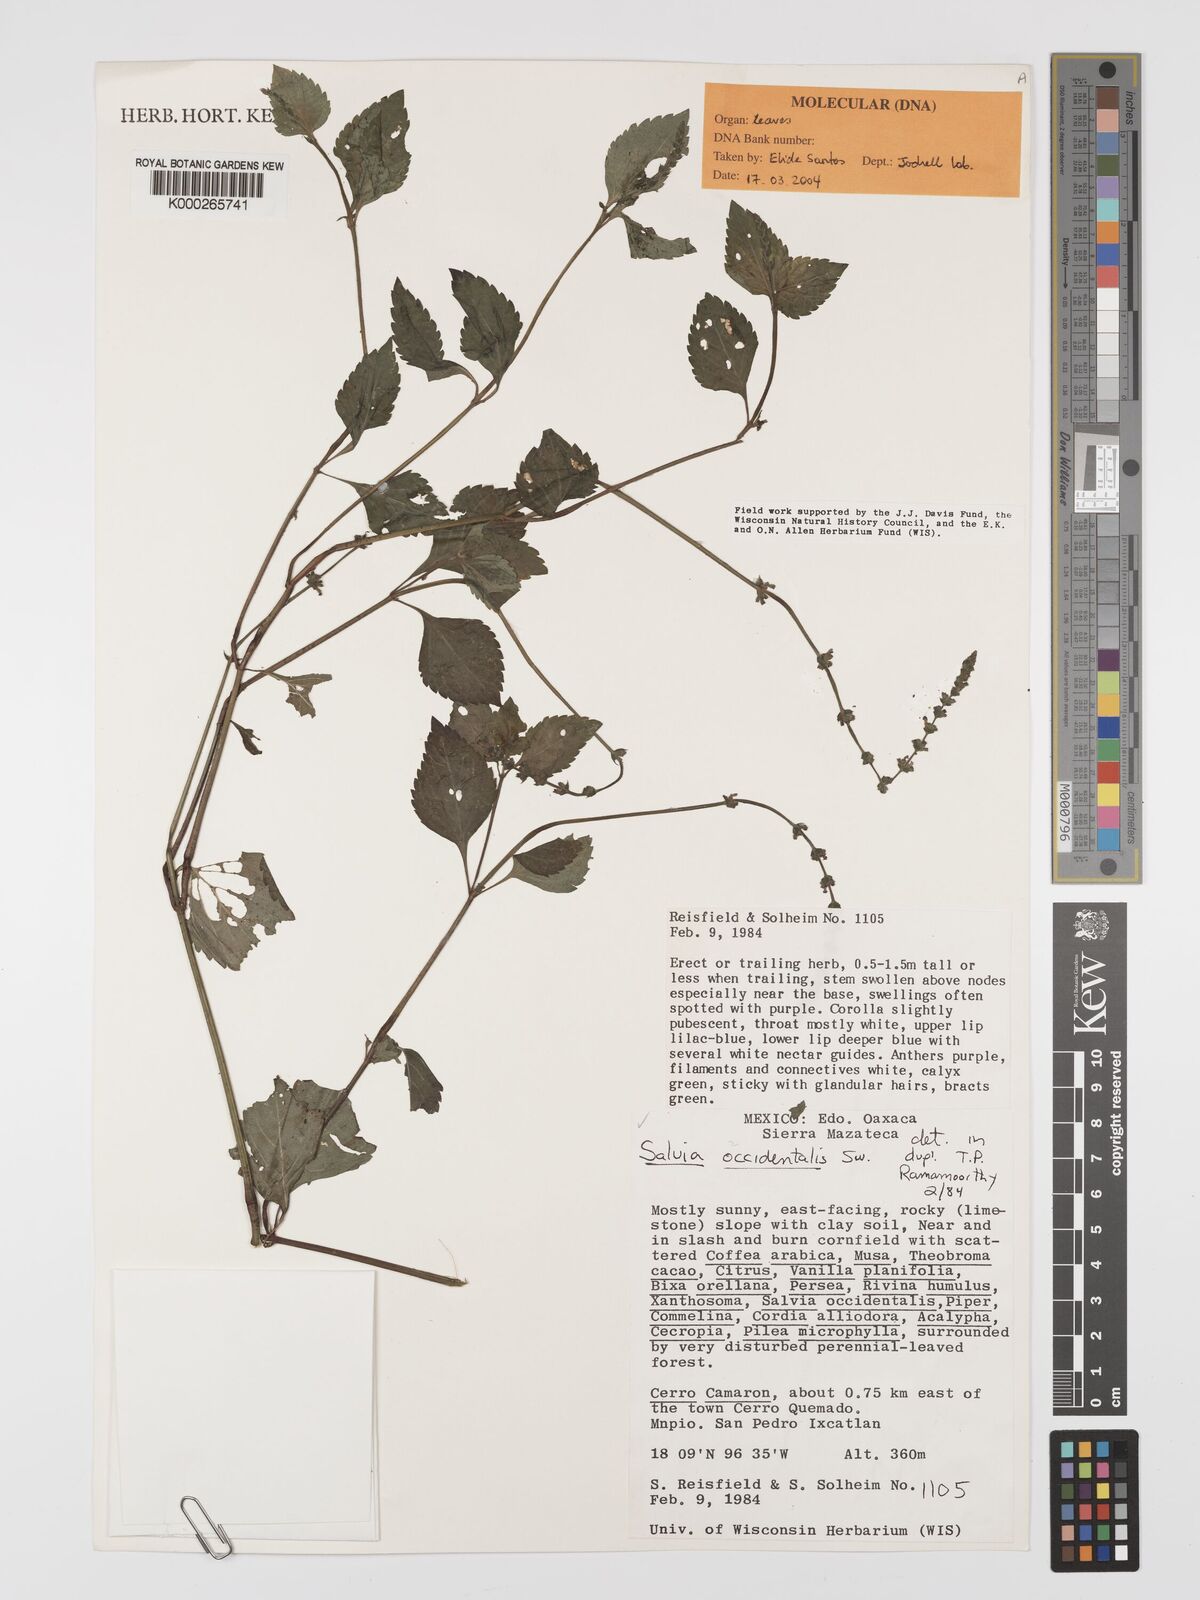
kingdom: Plantae
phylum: Tracheophyta
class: Magnoliopsida
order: Lamiales
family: Lamiaceae
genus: Salvia
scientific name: Salvia occidentalis
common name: West indian sage
